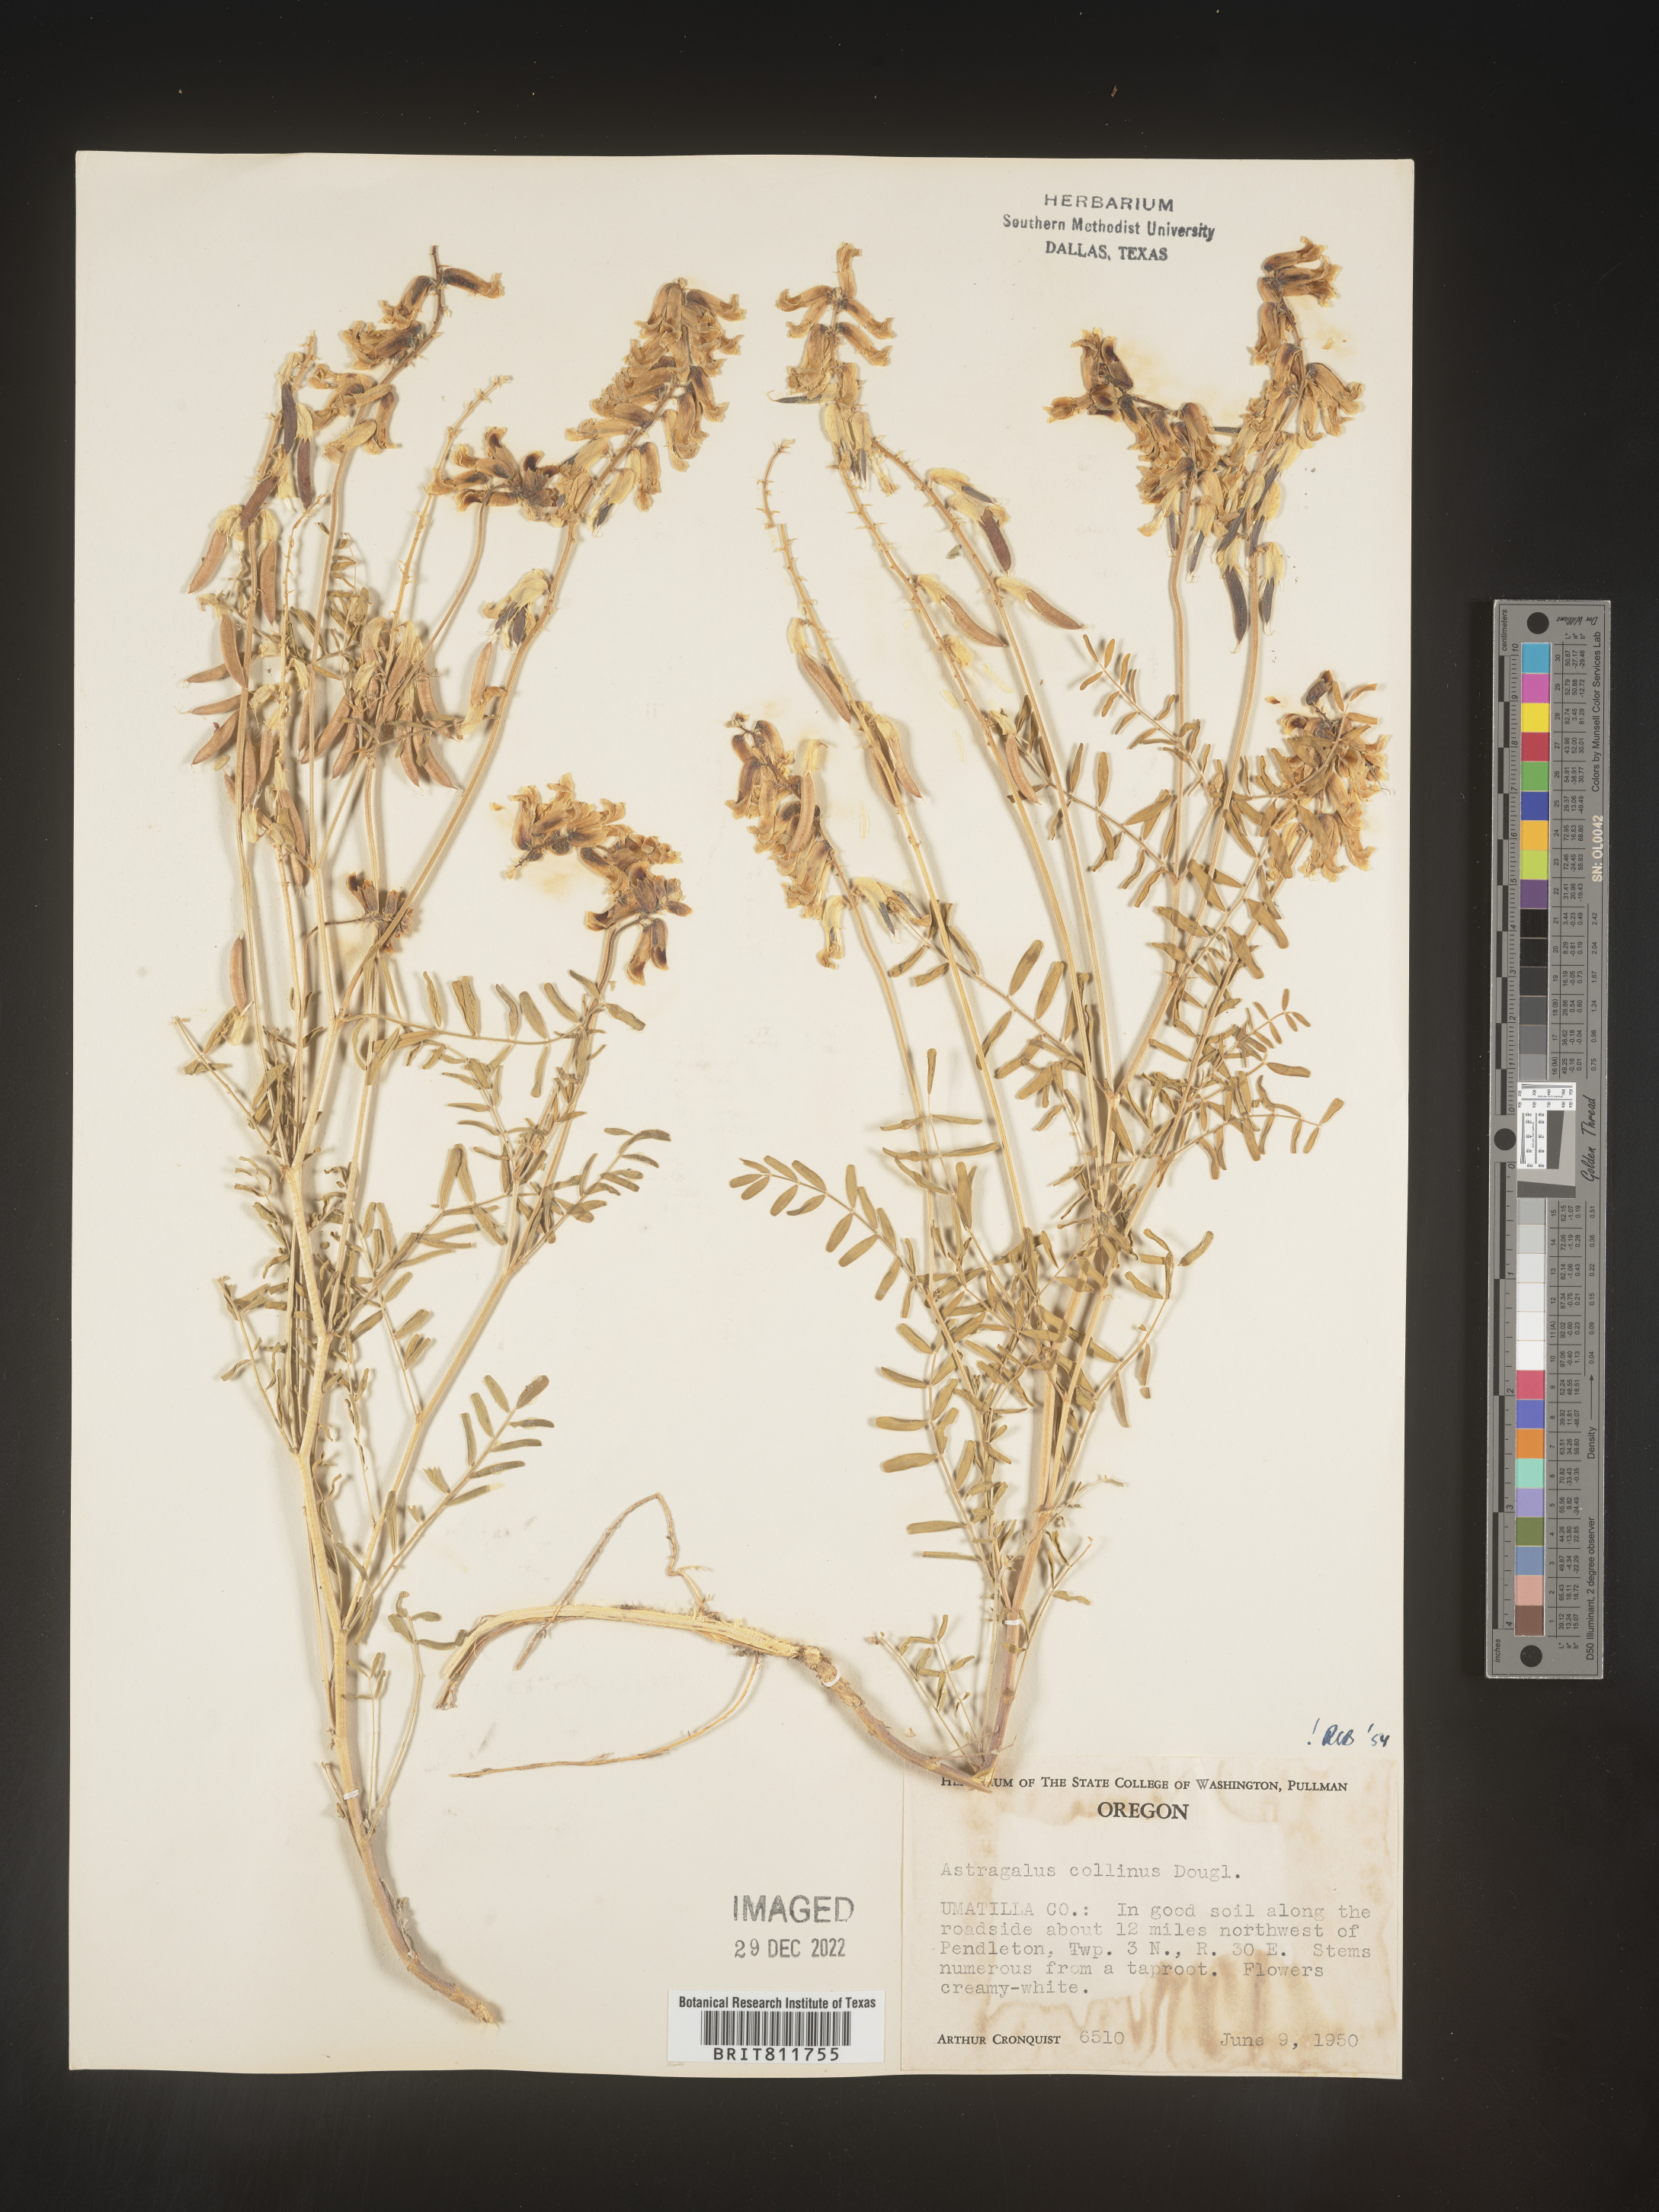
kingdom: Plantae
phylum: Tracheophyta
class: Magnoliopsida
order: Fabales
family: Fabaceae
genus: Astragalus
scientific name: Astragalus
